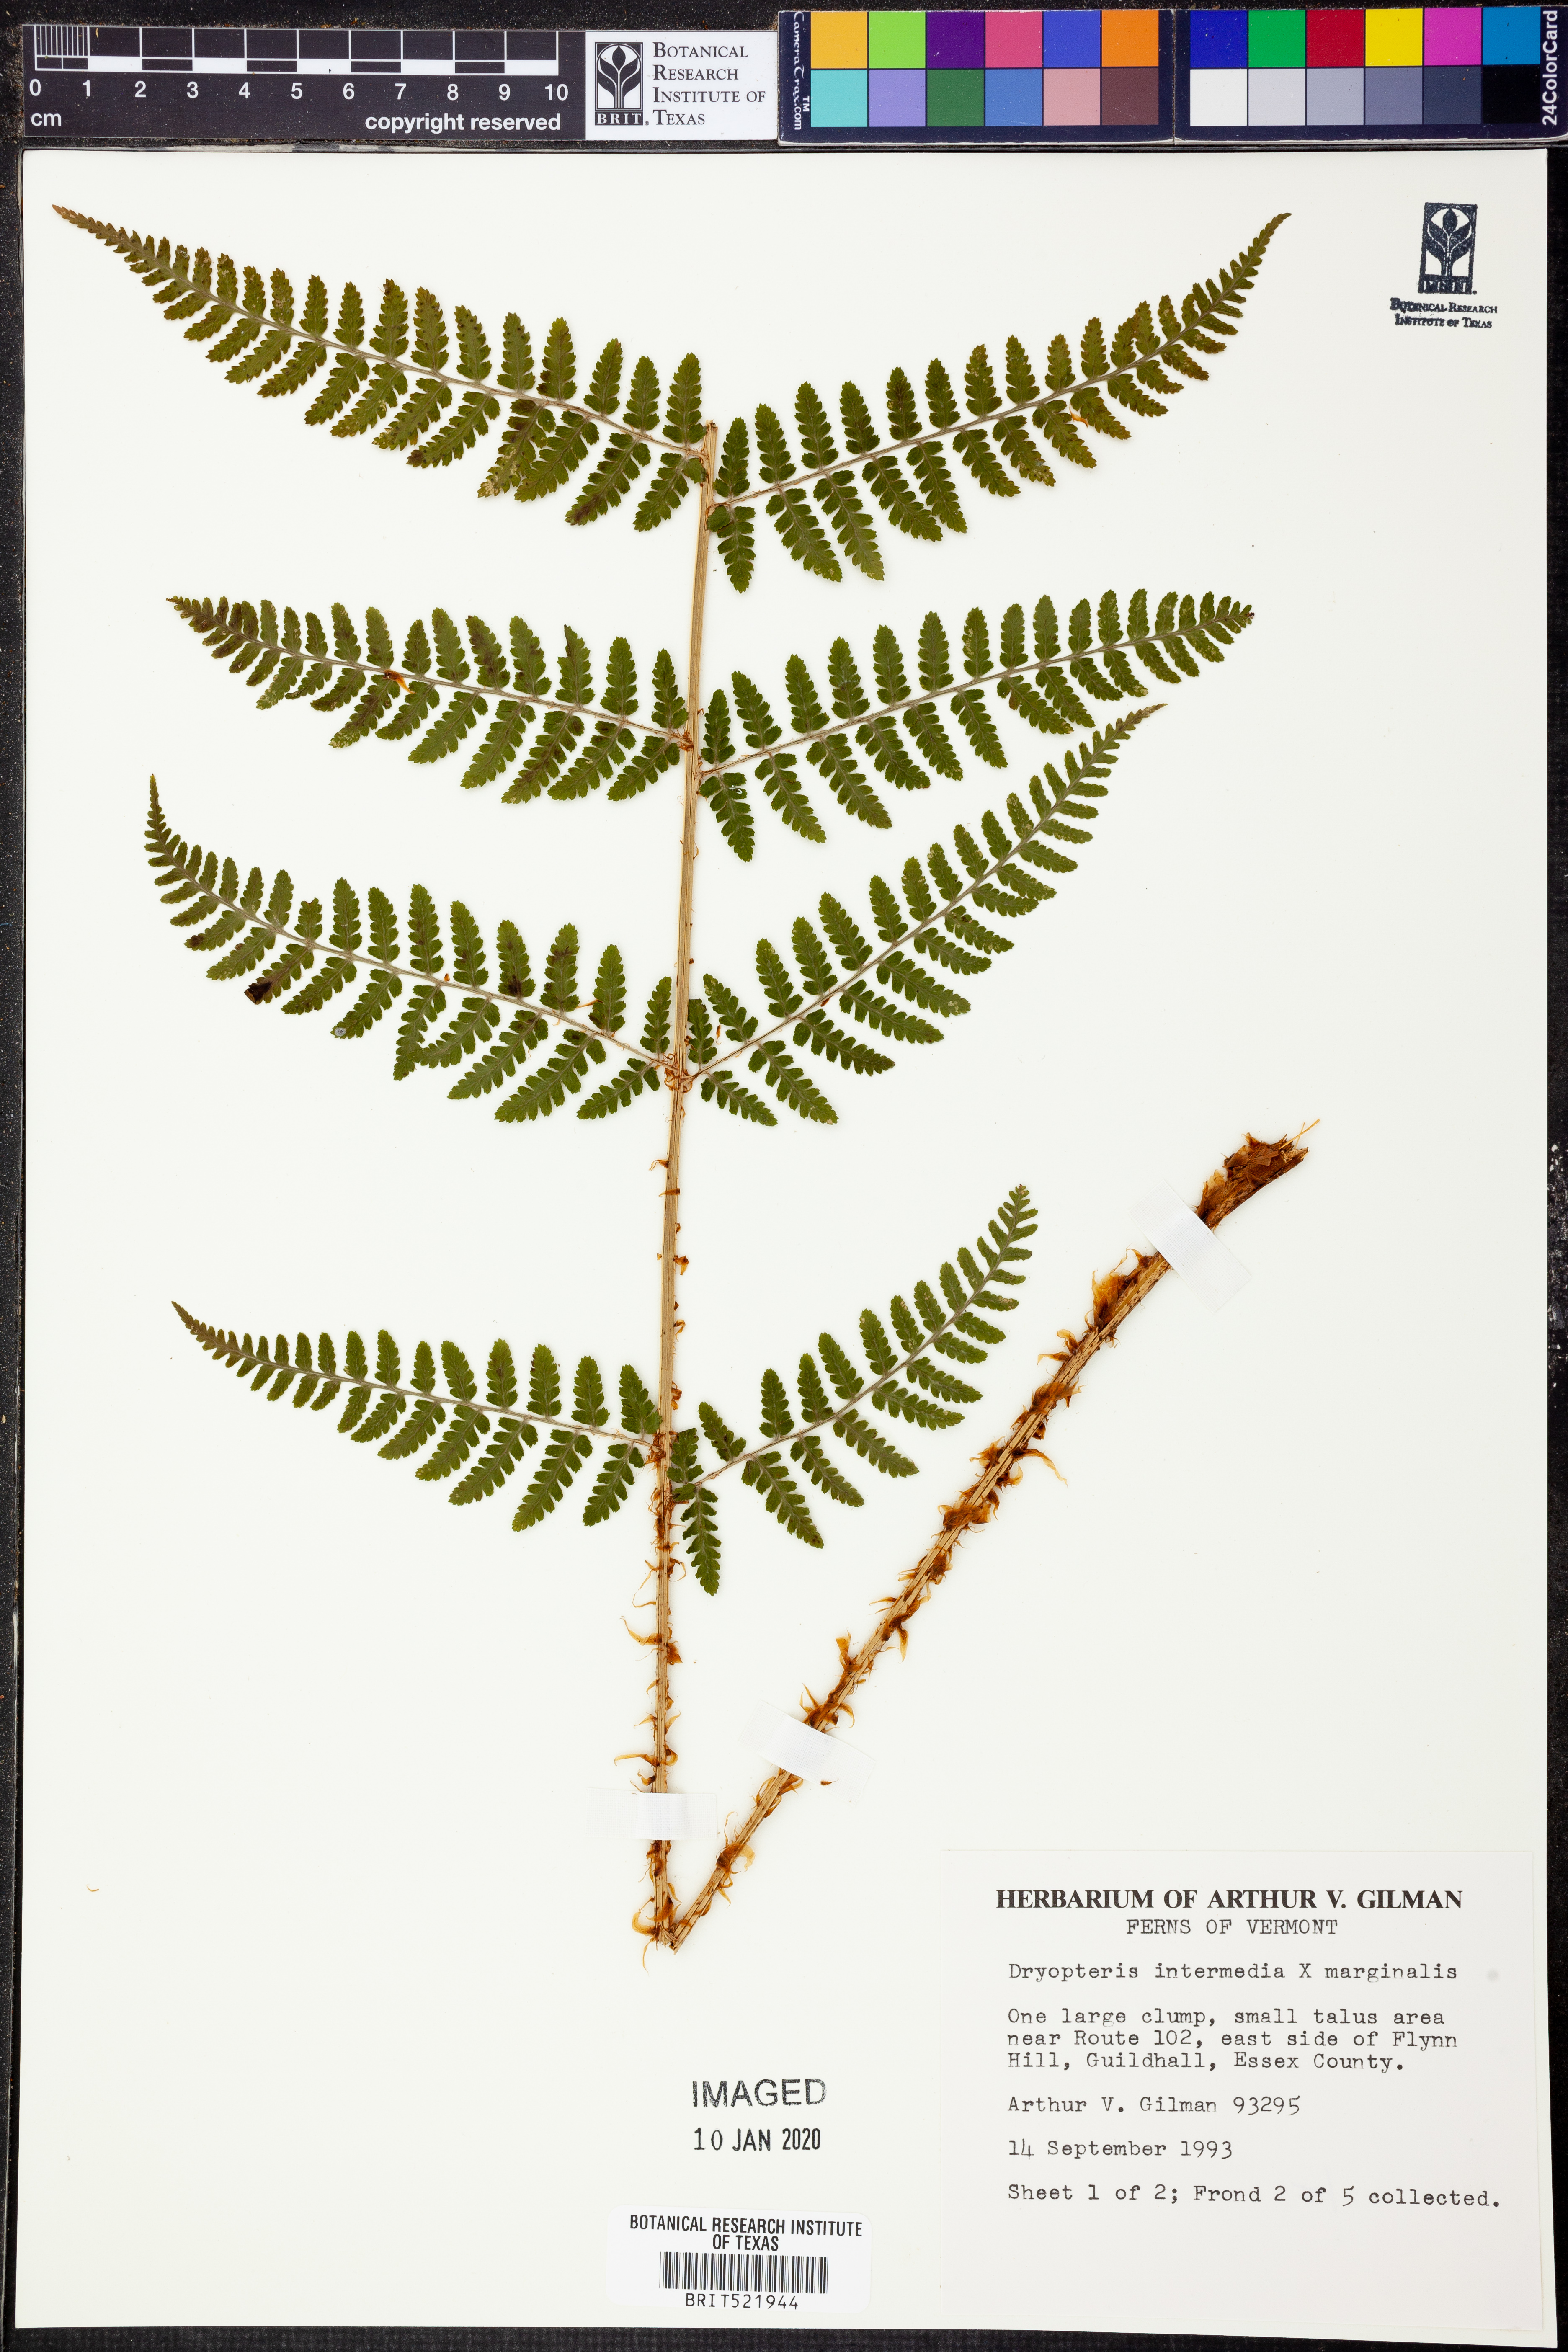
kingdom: Plantae
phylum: Tracheophyta
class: Polypodiopsida
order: Polypodiales
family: Dryopteridaceae
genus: Dryopteris
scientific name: Dryopteris
